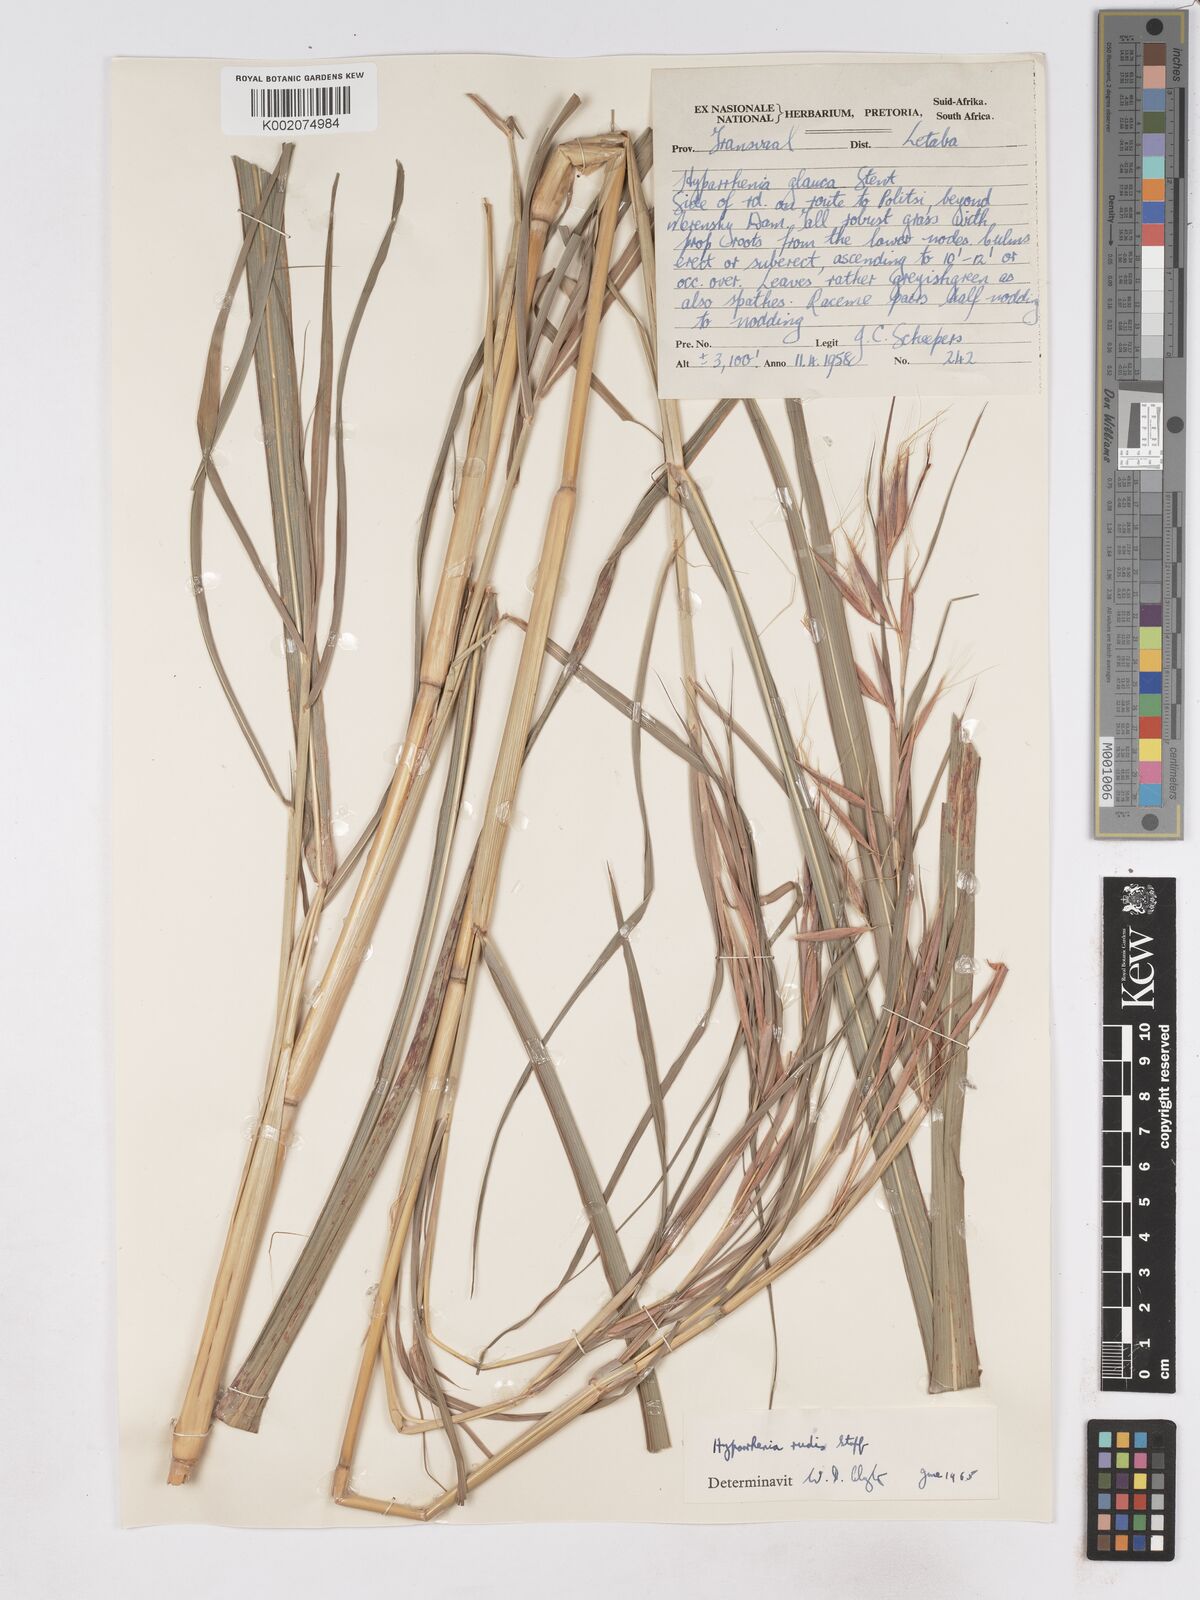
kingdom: Plantae
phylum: Tracheophyta
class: Liliopsida
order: Poales
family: Poaceae
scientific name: Poaceae
